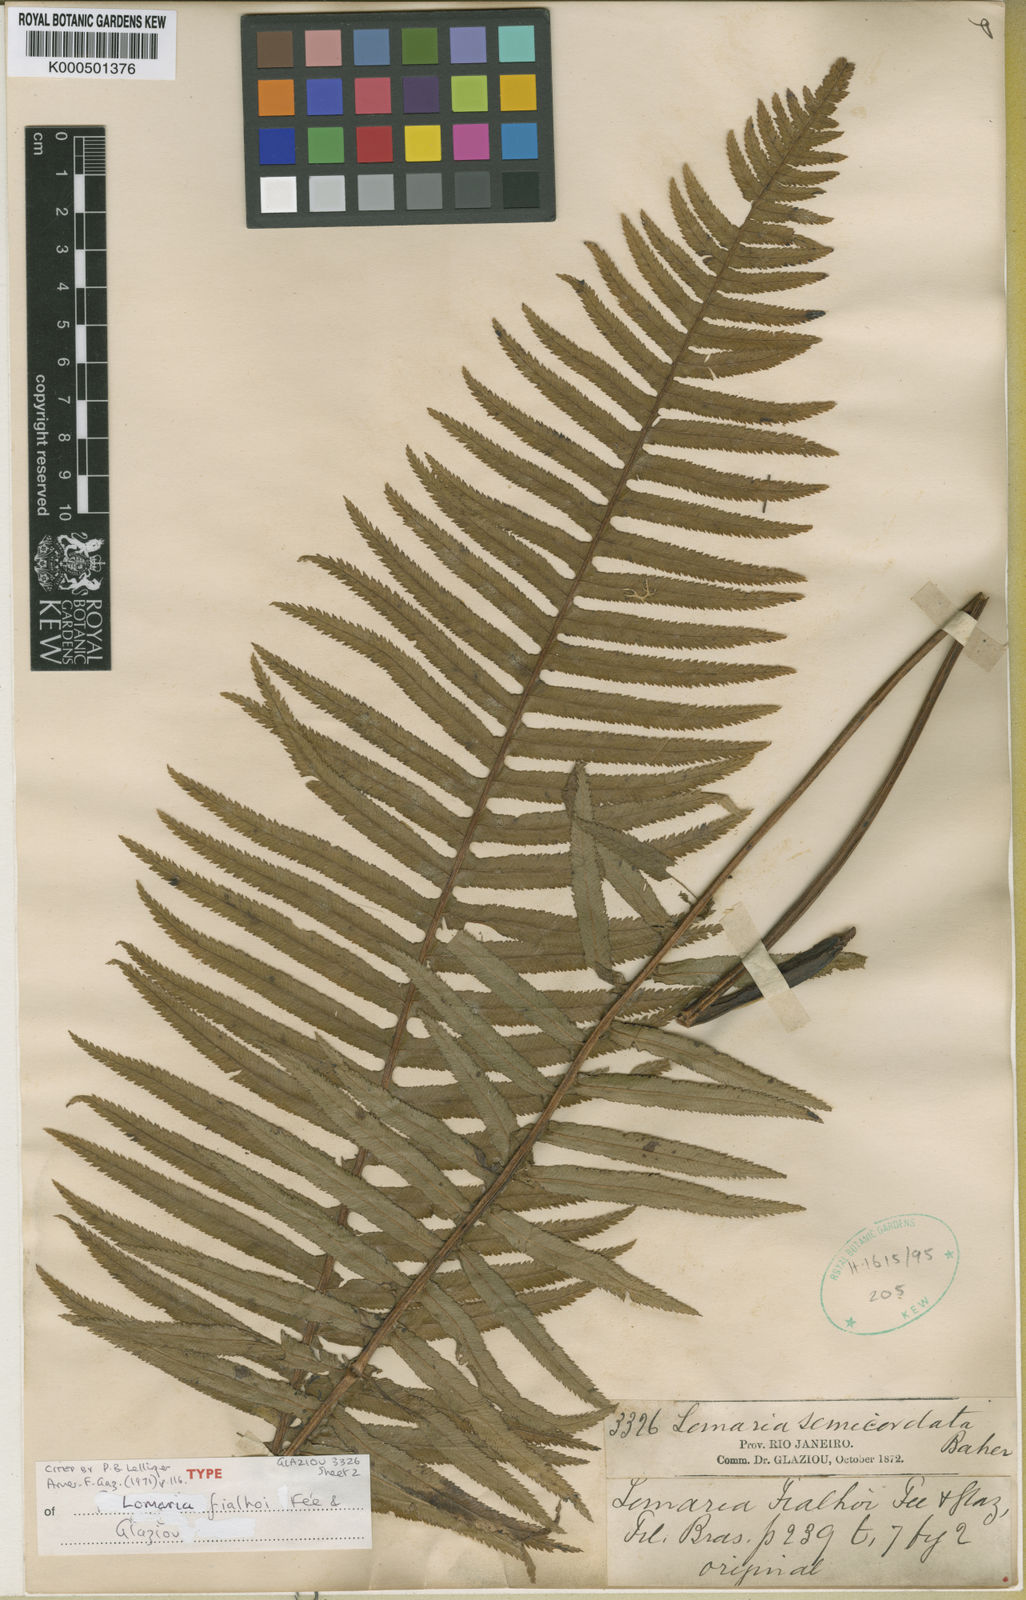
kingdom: Plantae
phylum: Tracheophyta
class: Polypodiopsida
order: Cyatheales
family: Plagiogyriaceae
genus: Plagiogyria
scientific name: Plagiogyria pectinata
